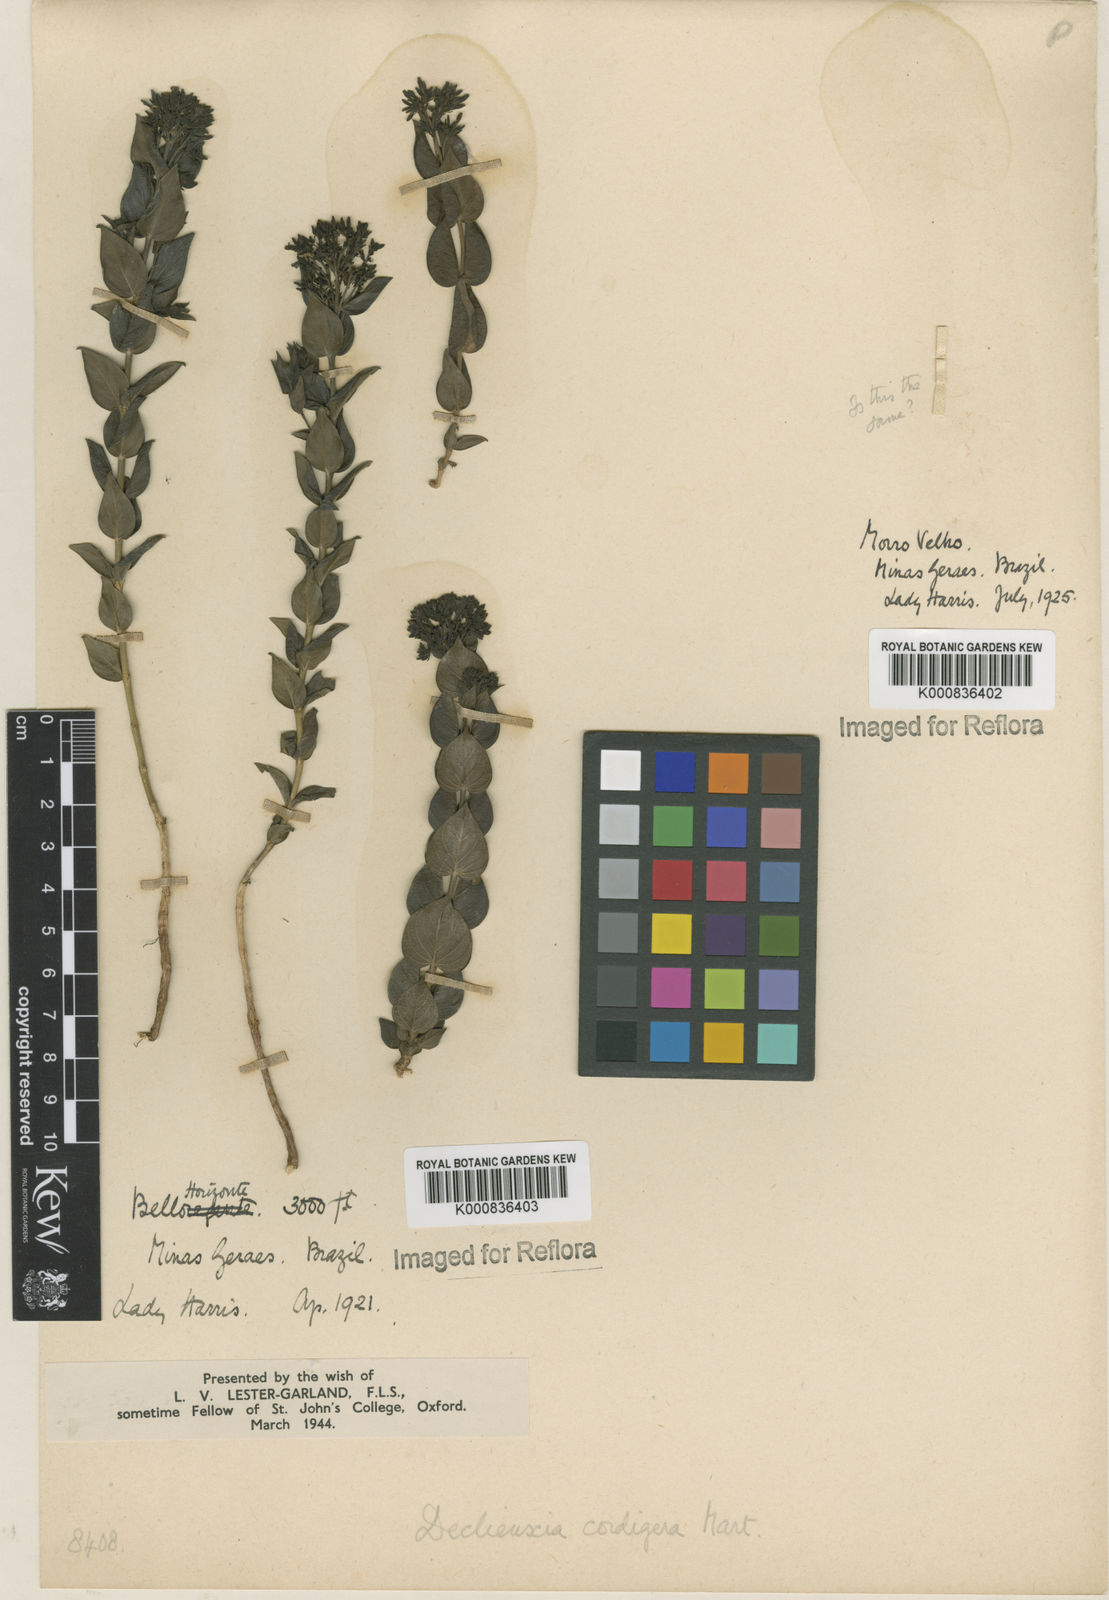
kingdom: Plantae
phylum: Tracheophyta
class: Magnoliopsida
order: Gentianales
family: Rubiaceae
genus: Declieuxia
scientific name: Declieuxia cordigera
